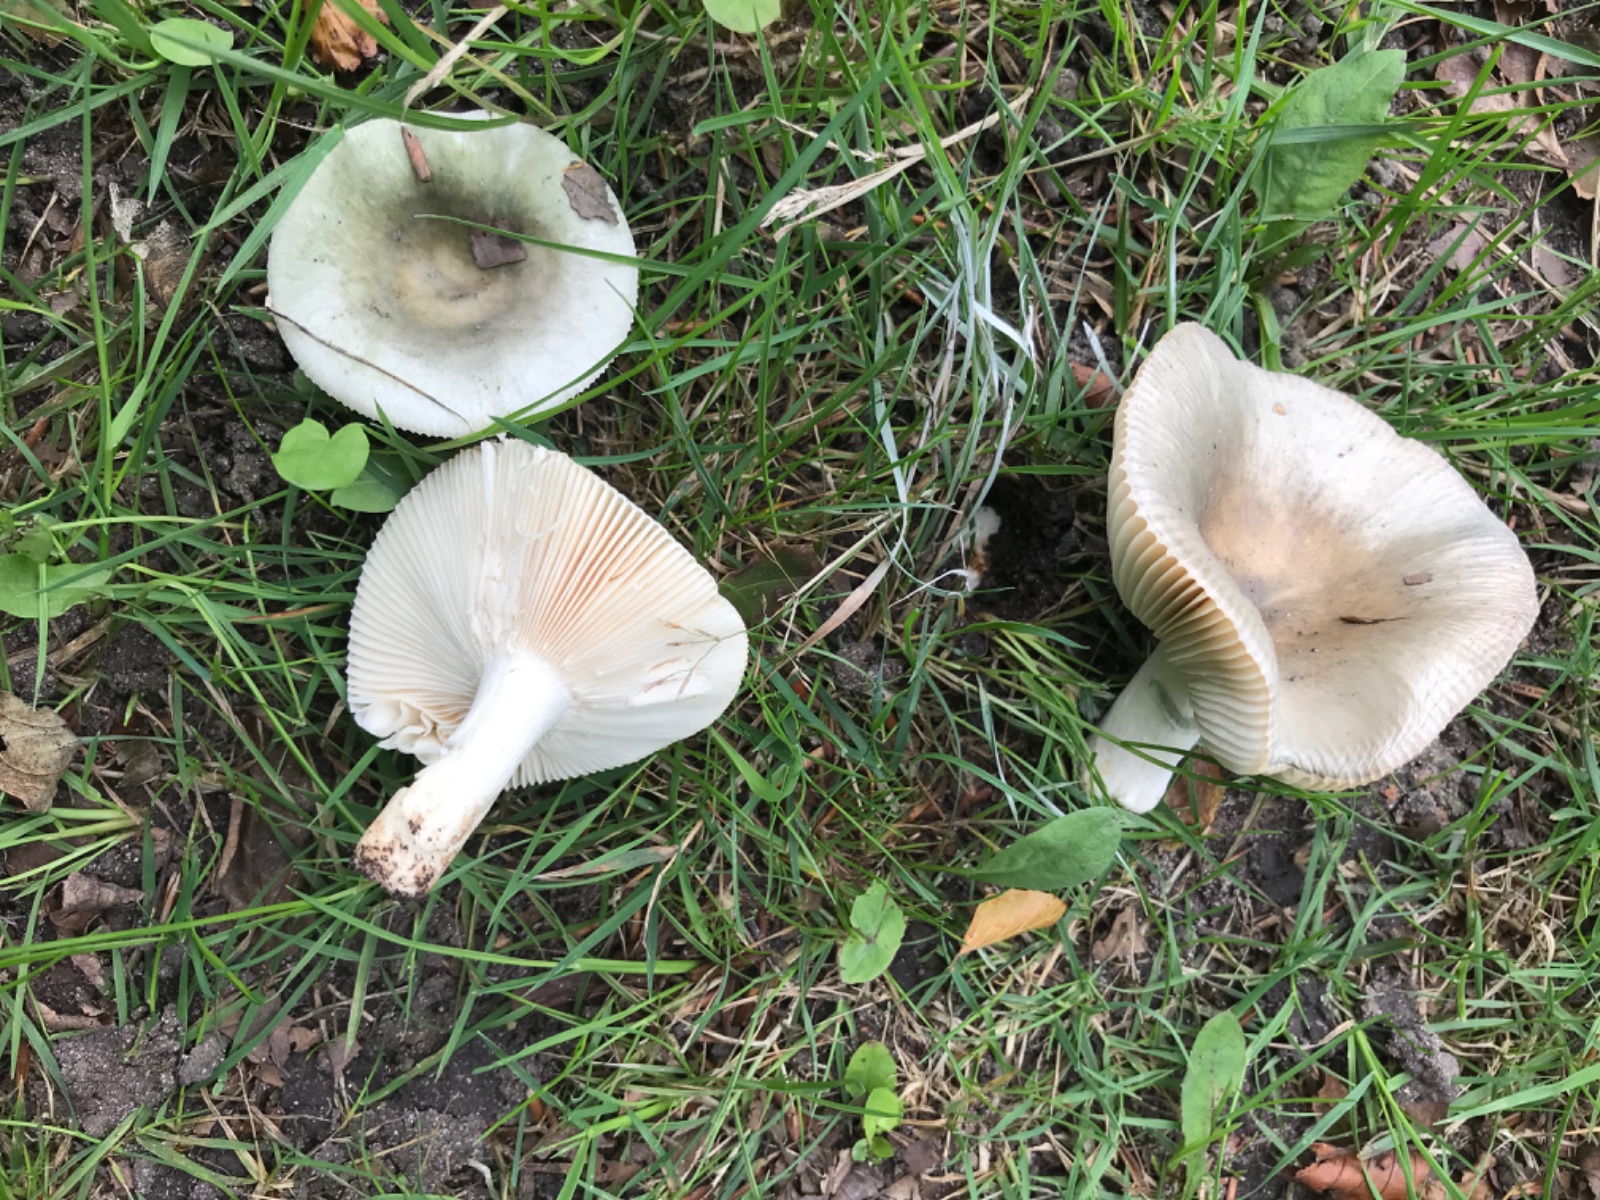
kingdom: Fungi
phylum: Basidiomycota
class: Agaricomycetes
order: Russulales
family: Russulaceae
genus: Russula
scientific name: Russula
